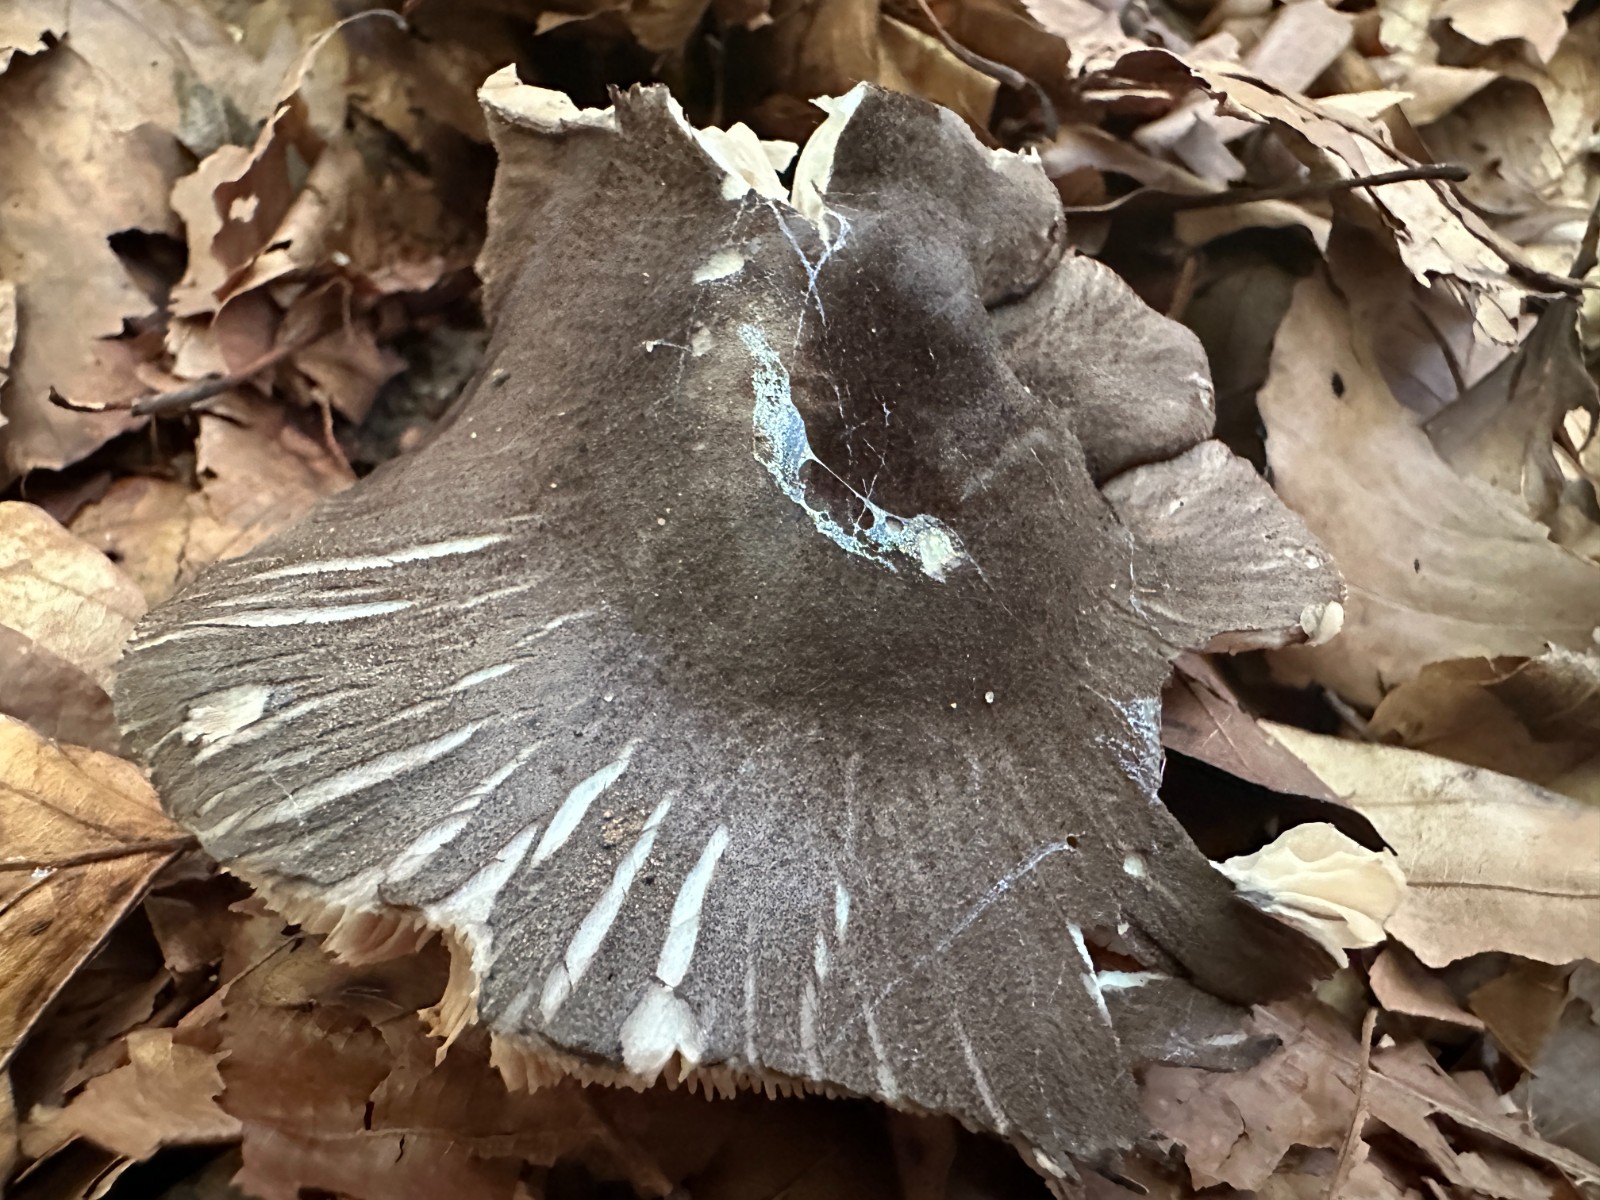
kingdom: Fungi
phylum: Basidiomycota
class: Agaricomycetes
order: Agaricales
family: Tricholomataceae
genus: Tricholoma
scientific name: Tricholoma orirubens
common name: rødbladet ridderhat
